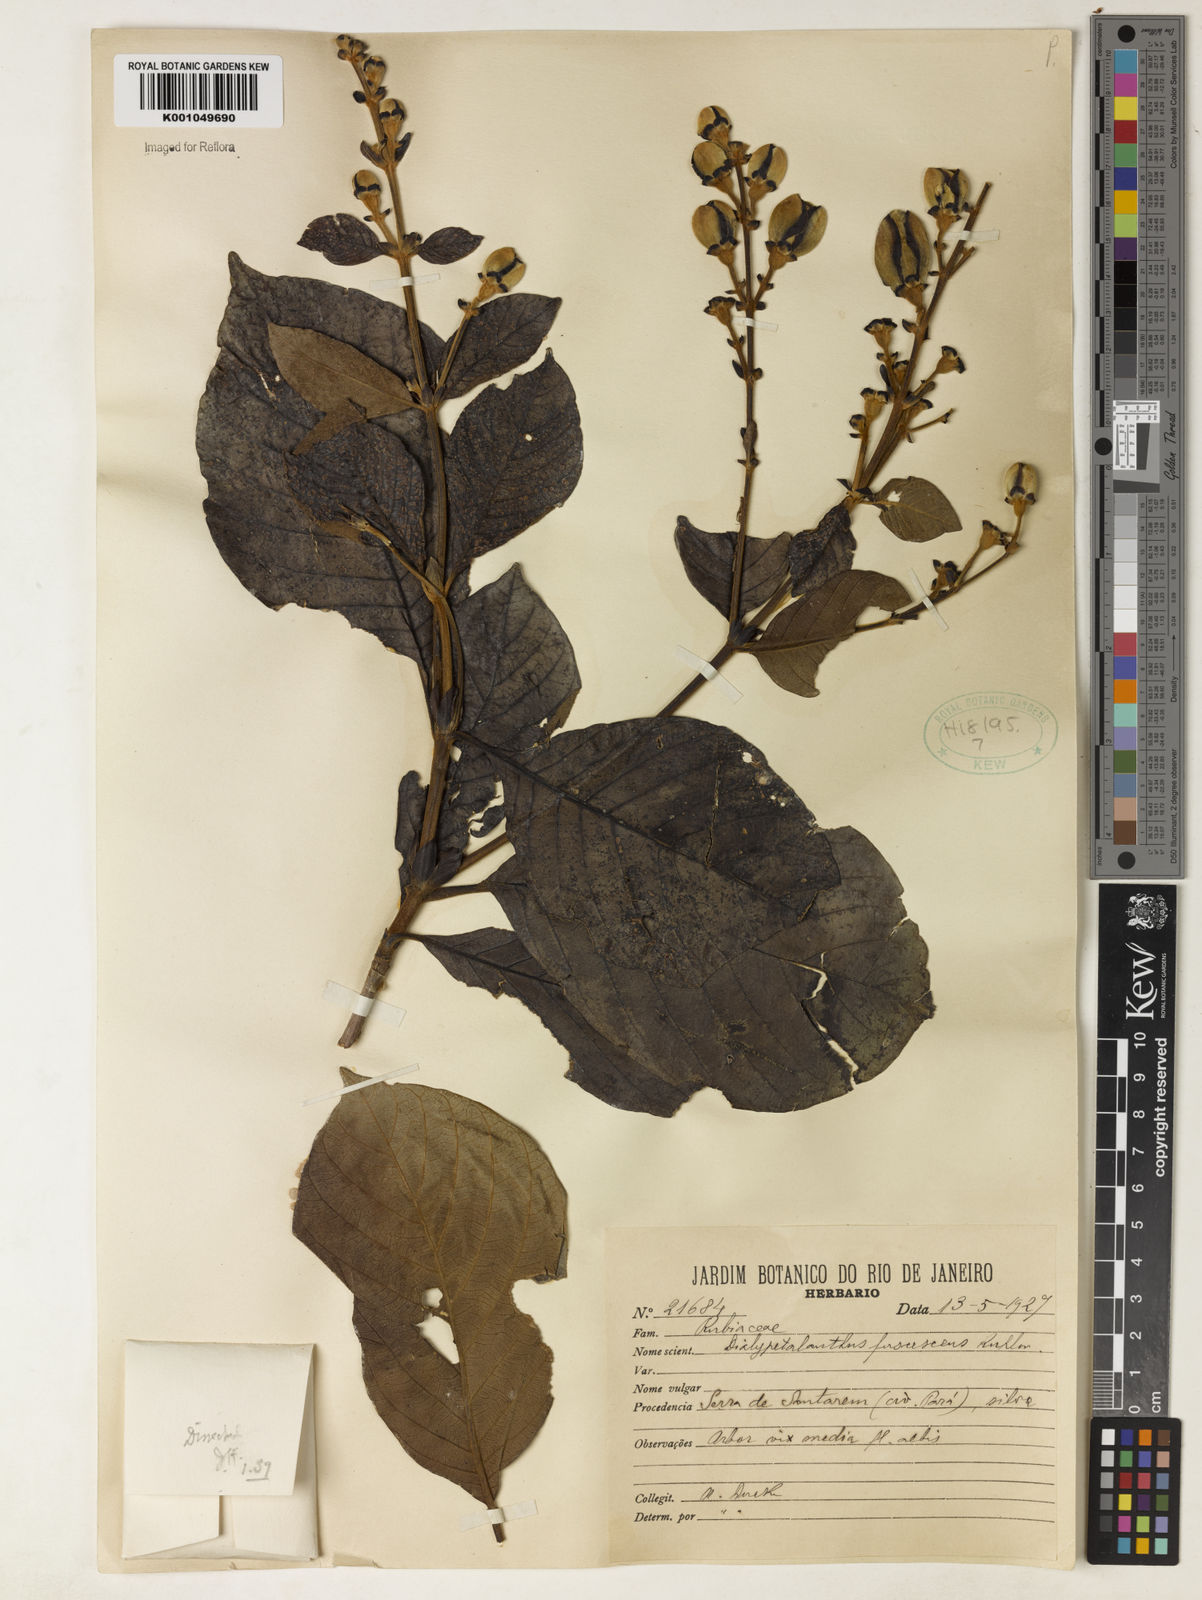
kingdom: Plantae
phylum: Tracheophyta
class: Magnoliopsida
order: Gentianales
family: Rubiaceae
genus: Dialypetalanthus
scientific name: Dialypetalanthus fuscescens
